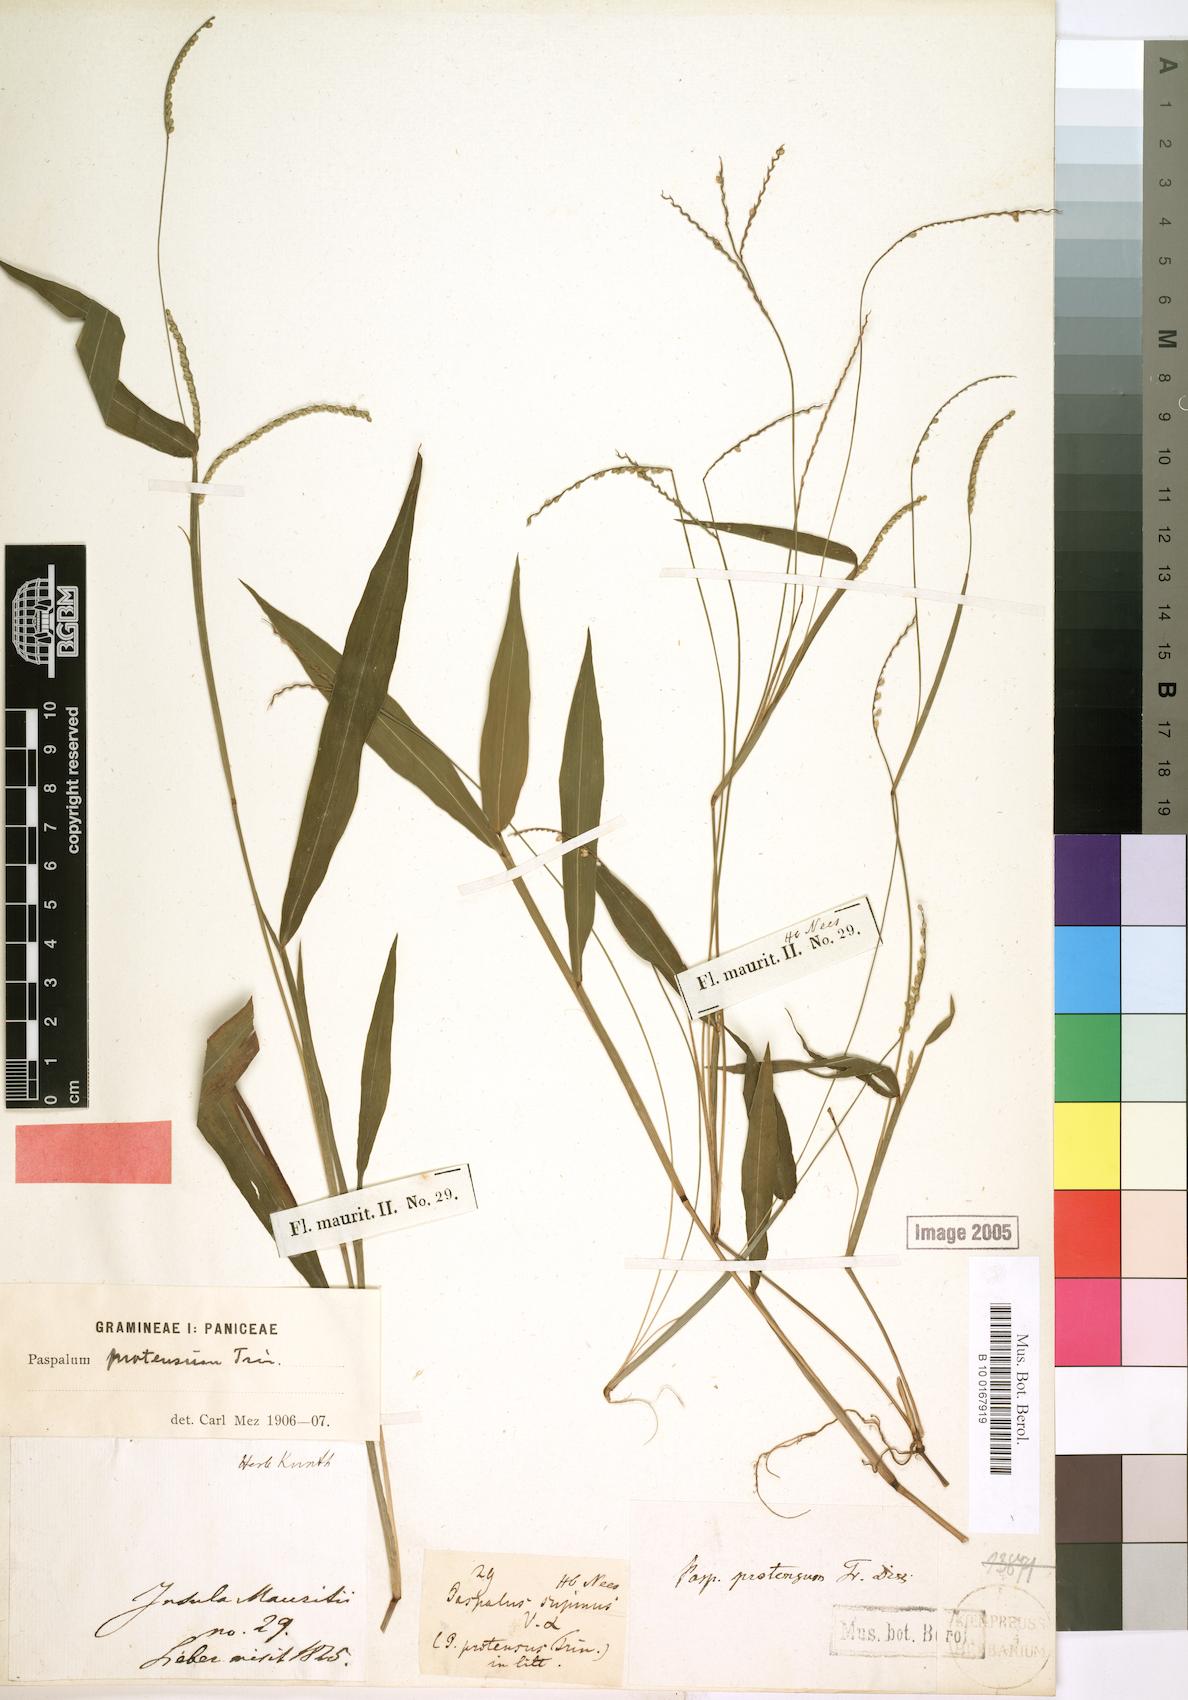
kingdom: Plantae
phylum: Tracheophyta
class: Liliopsida
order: Poales
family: Poaceae
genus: Paspalum
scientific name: Paspalum nutans
